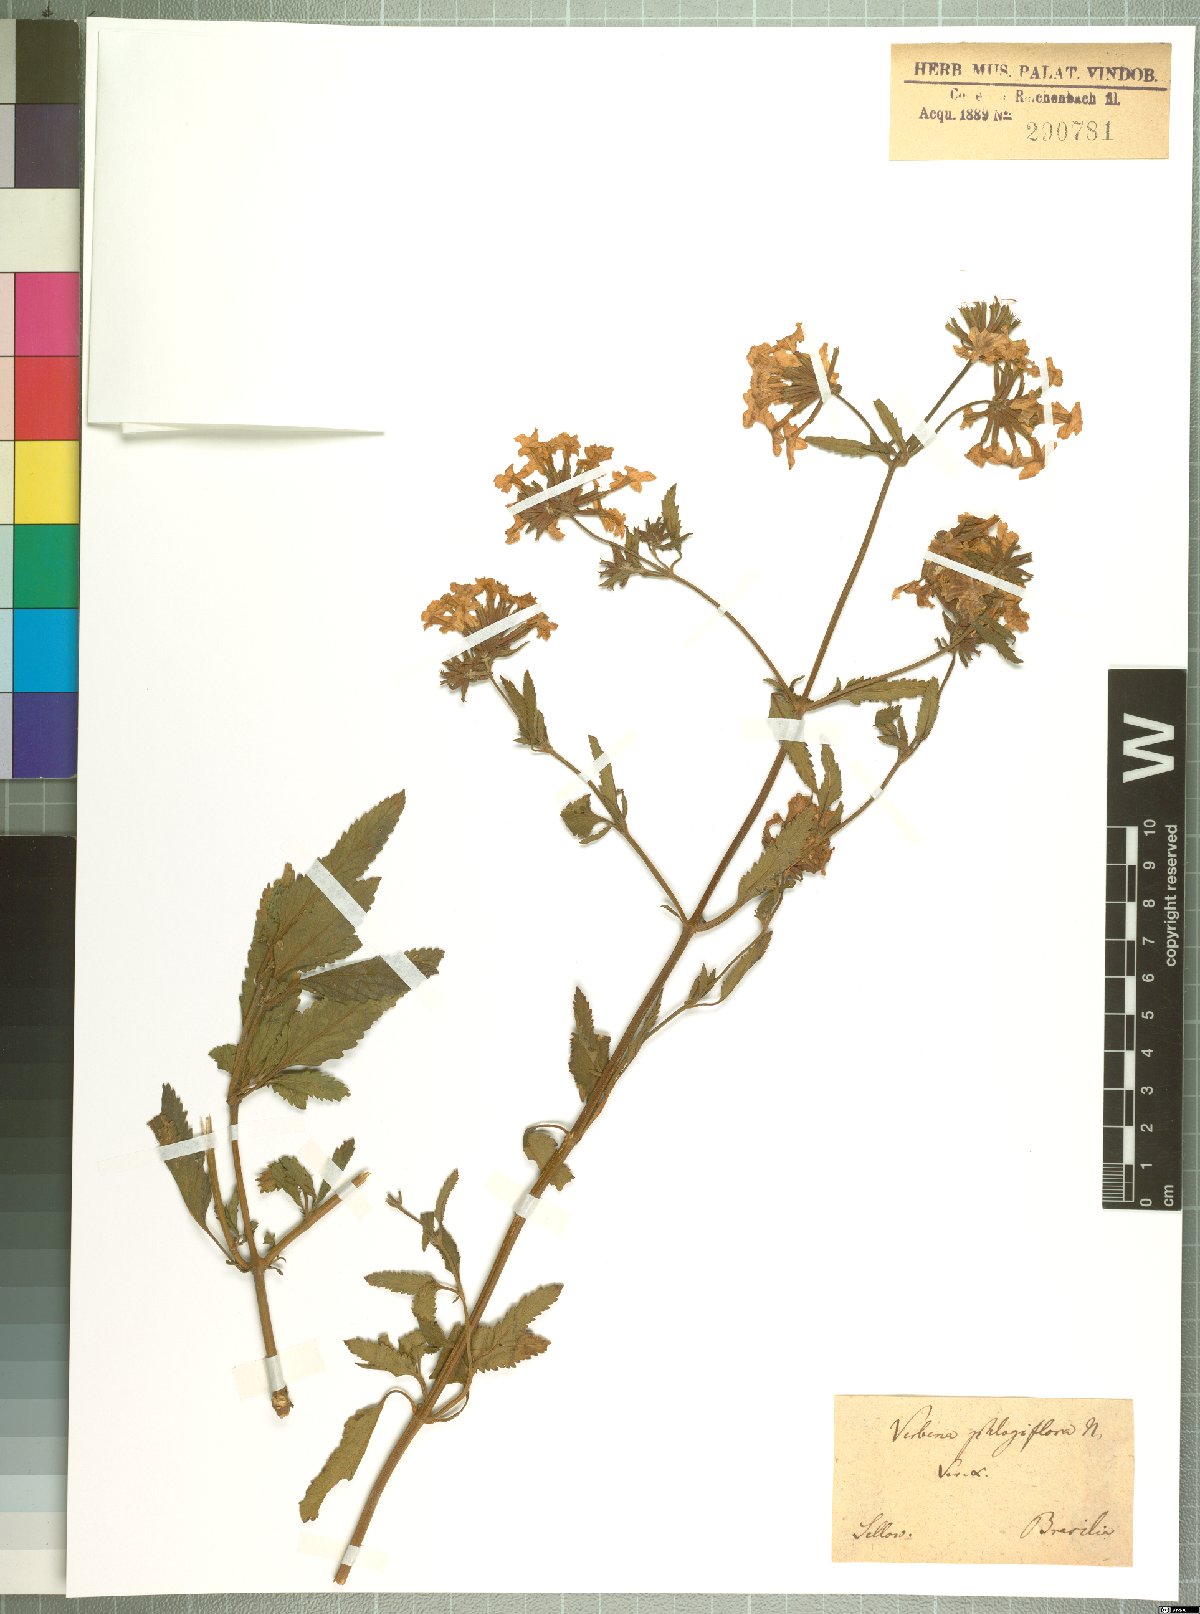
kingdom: Plantae
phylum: Tracheophyta
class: Magnoliopsida
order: Lamiales
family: Verbenaceae
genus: Verbena
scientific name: Verbena phlogiflora
